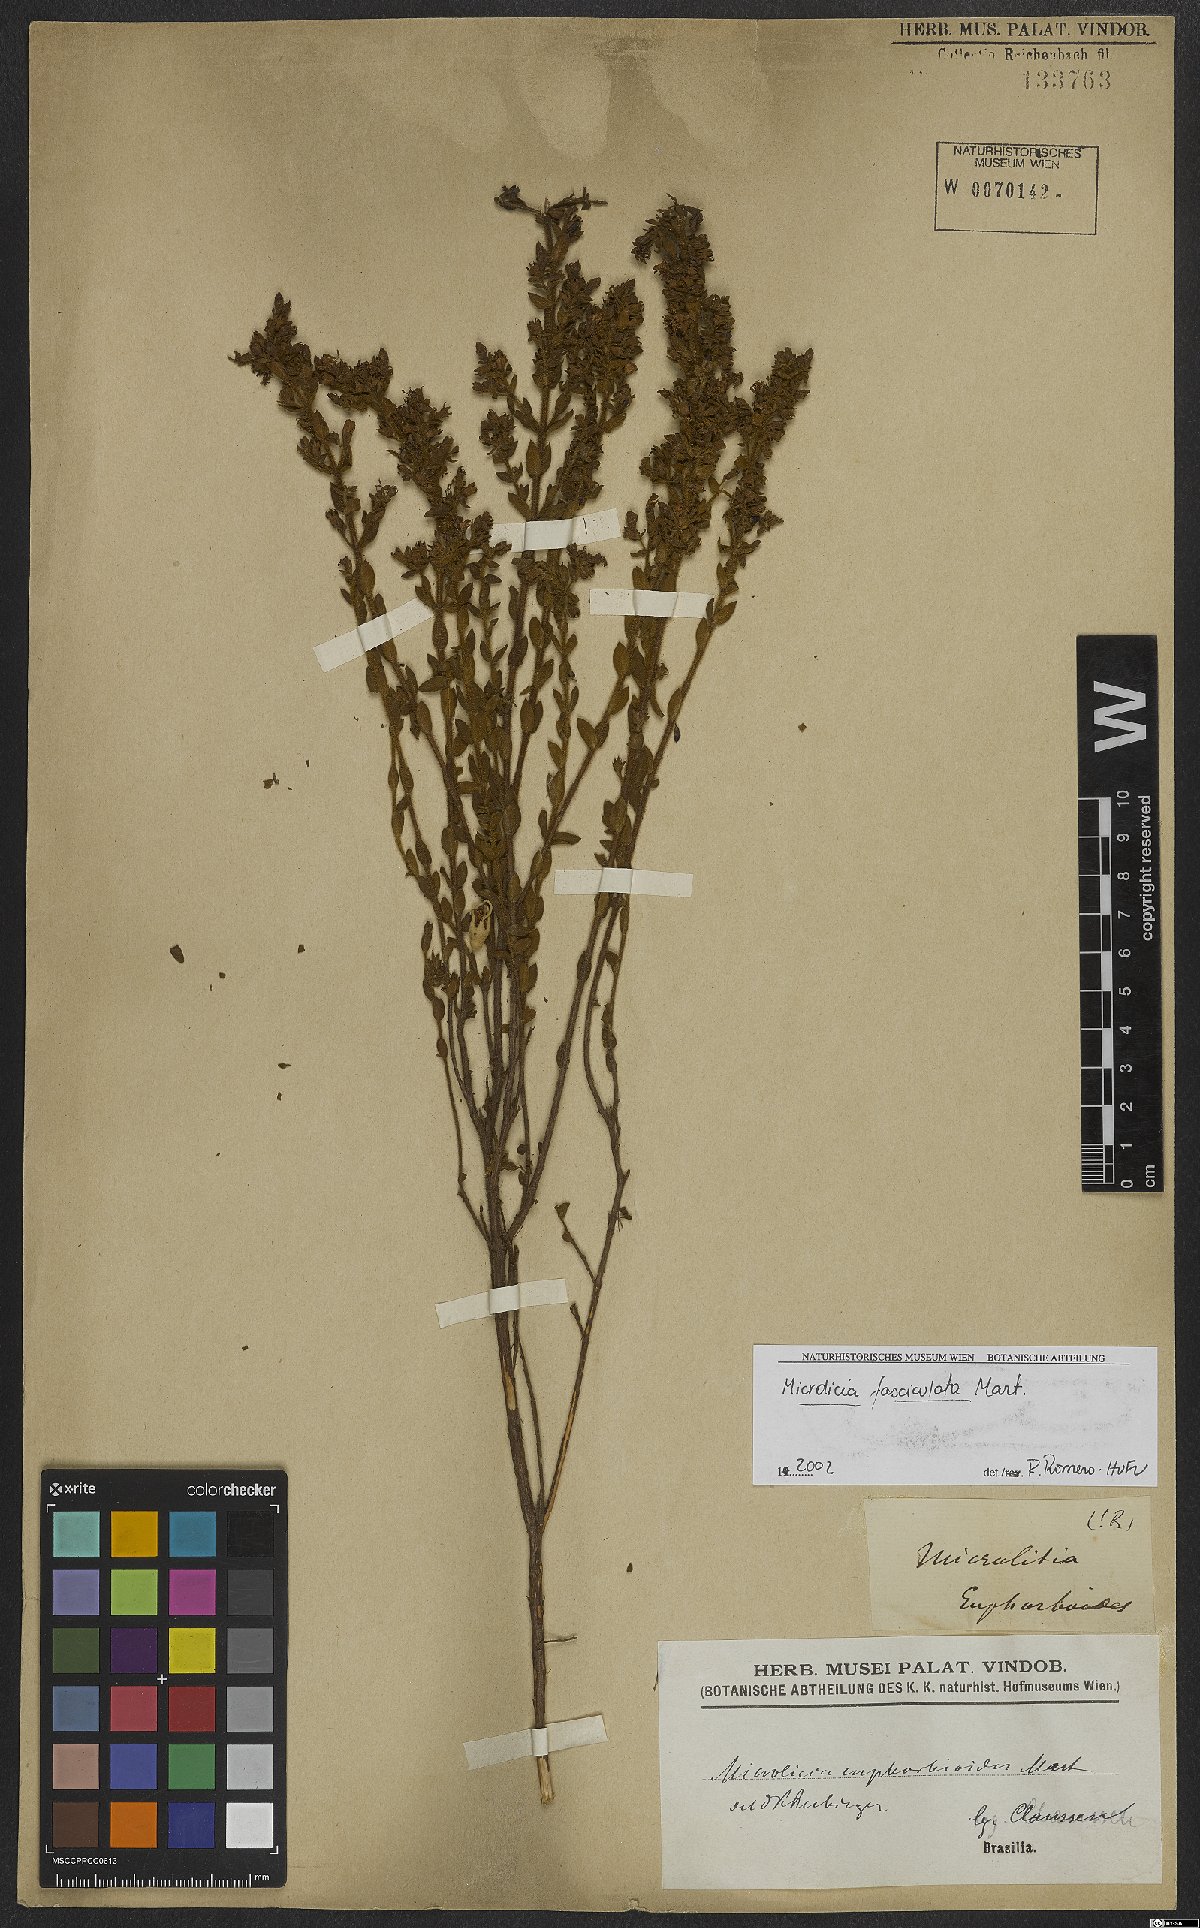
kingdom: Plantae
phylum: Tracheophyta
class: Magnoliopsida
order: Myrtales
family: Melastomataceae
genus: Microlicia
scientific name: Microlicia fasciculata
